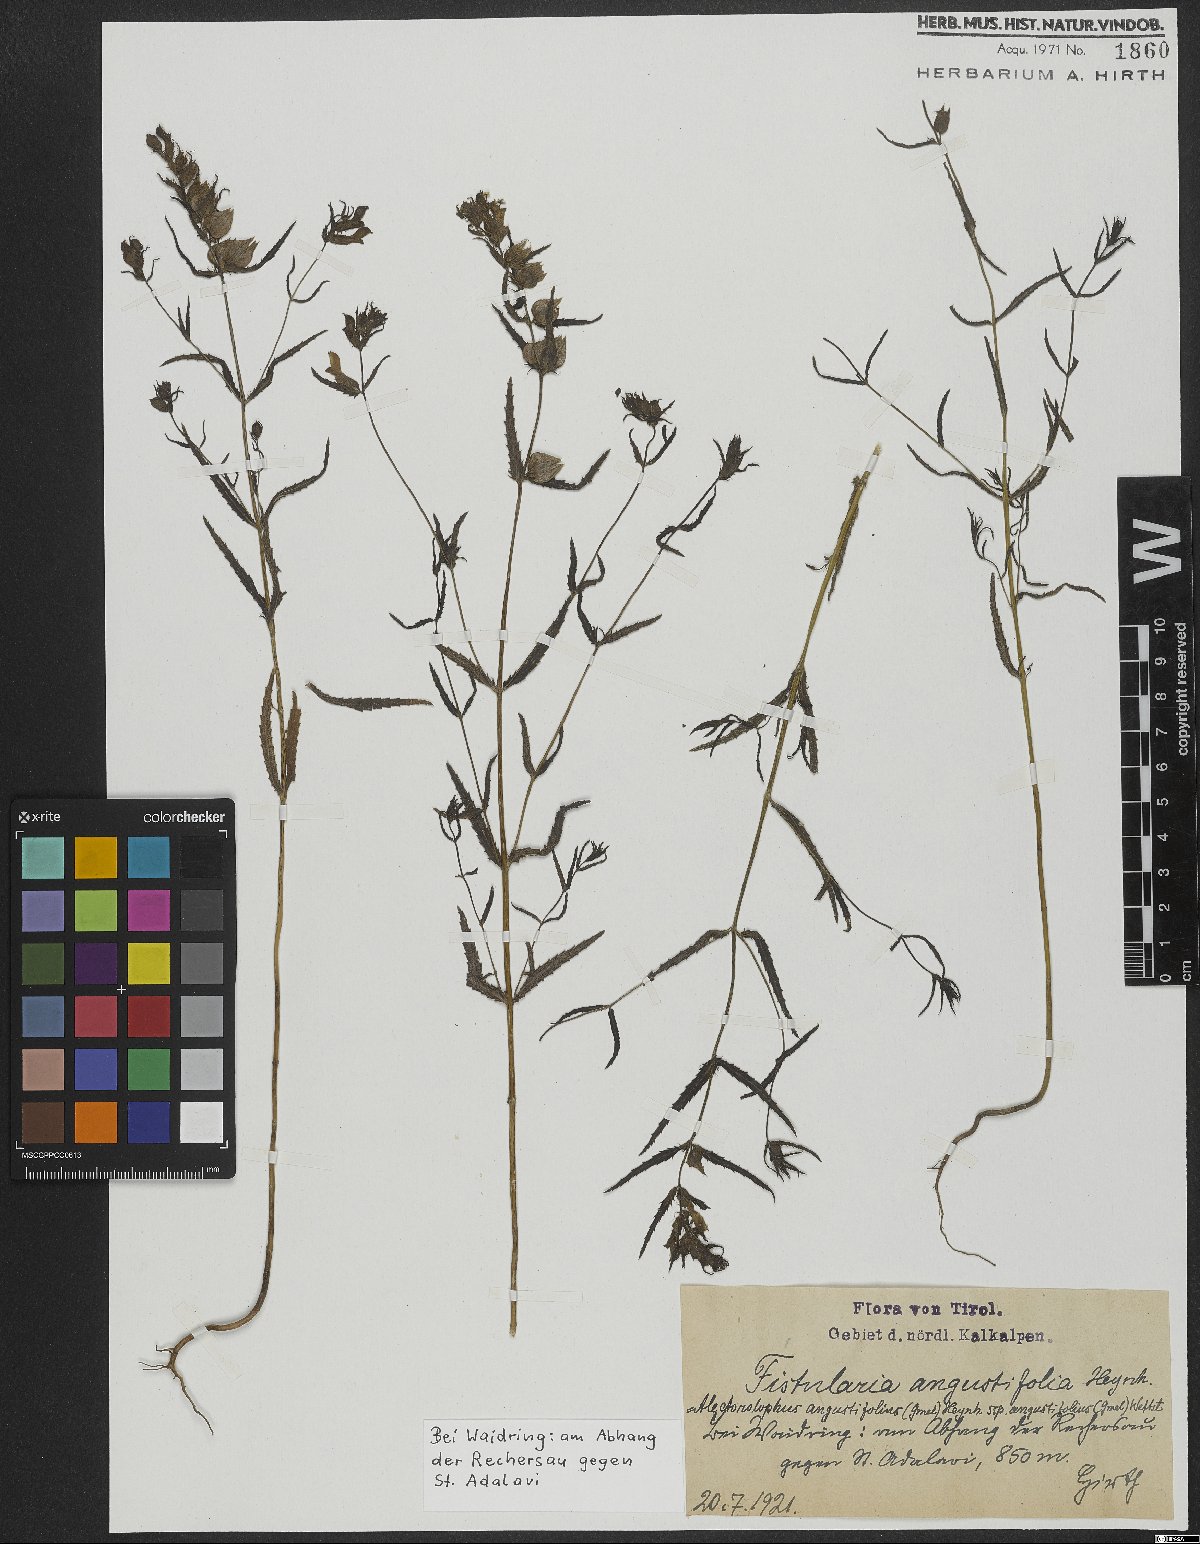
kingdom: Plantae
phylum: Tracheophyta
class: Magnoliopsida
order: Lamiales
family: Orobanchaceae
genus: Rhinanthus
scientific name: Rhinanthus glacialis
